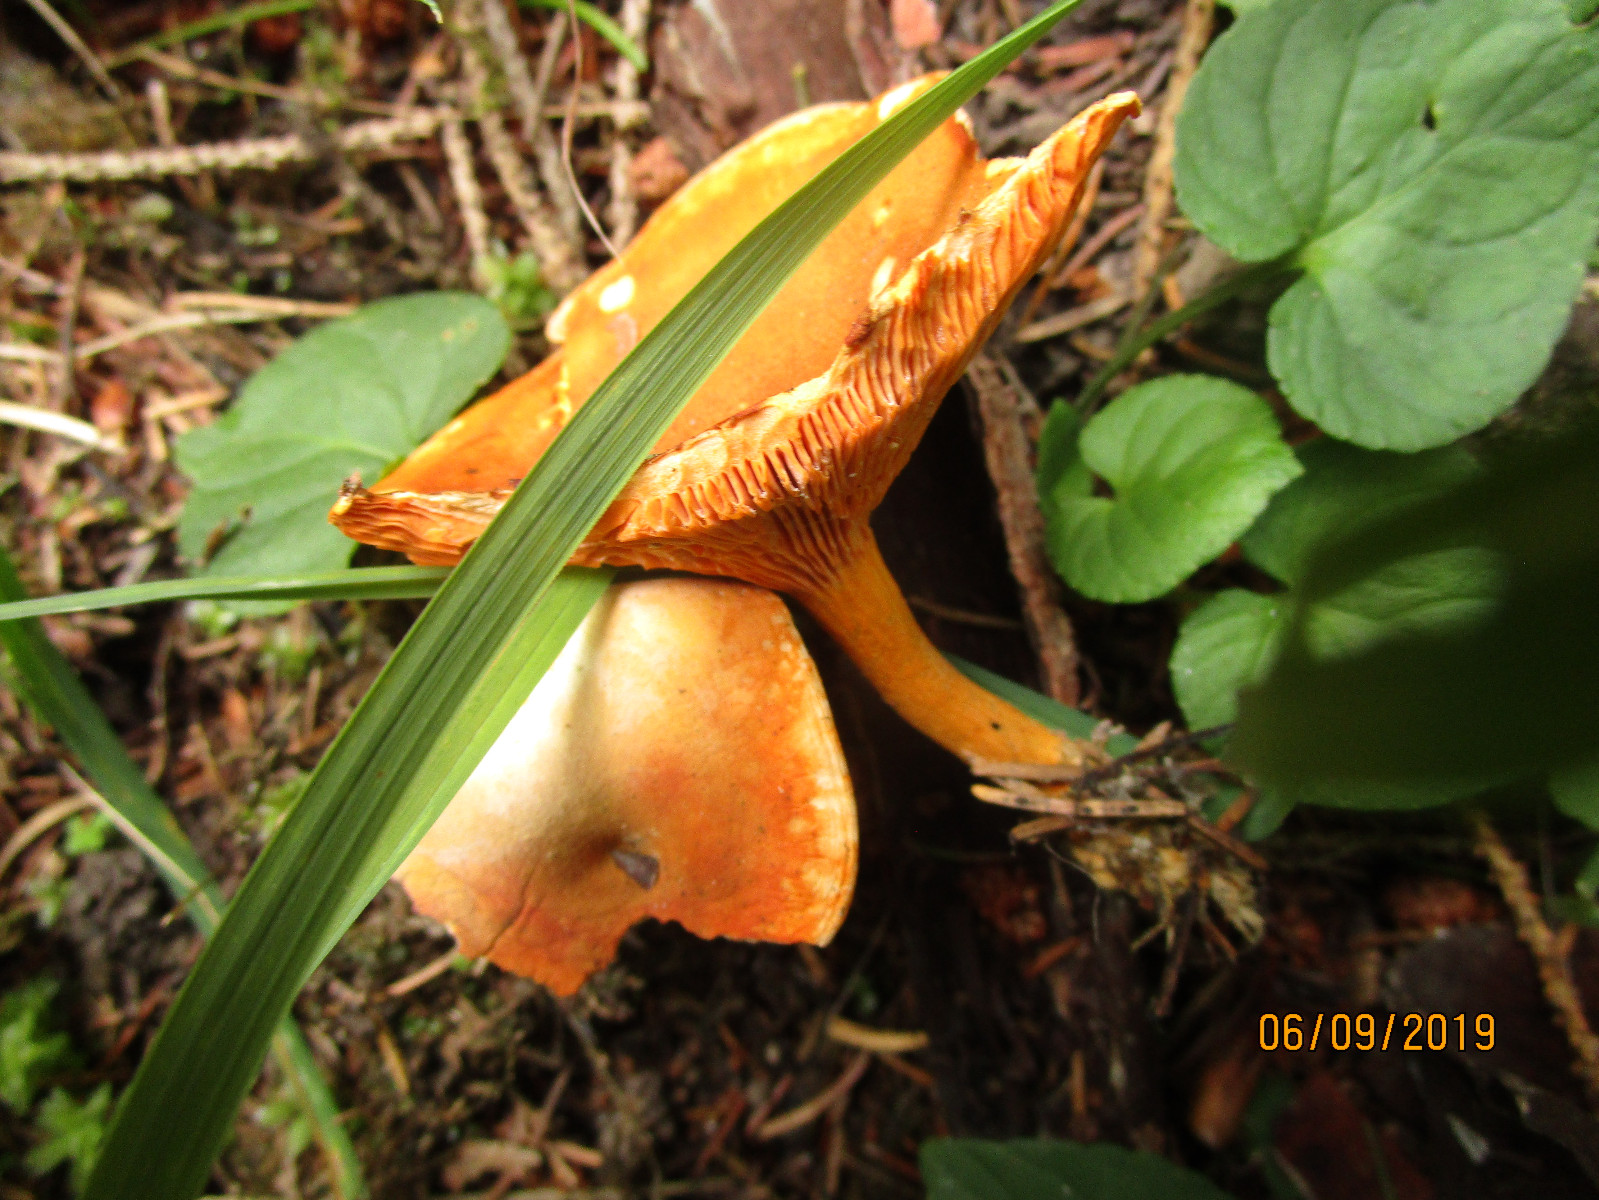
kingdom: Fungi
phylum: Basidiomycota
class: Agaricomycetes
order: Boletales
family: Hygrophoropsidaceae
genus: Hygrophoropsis
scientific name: Hygrophoropsis aurantiaca
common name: almindelig orangekantarel
